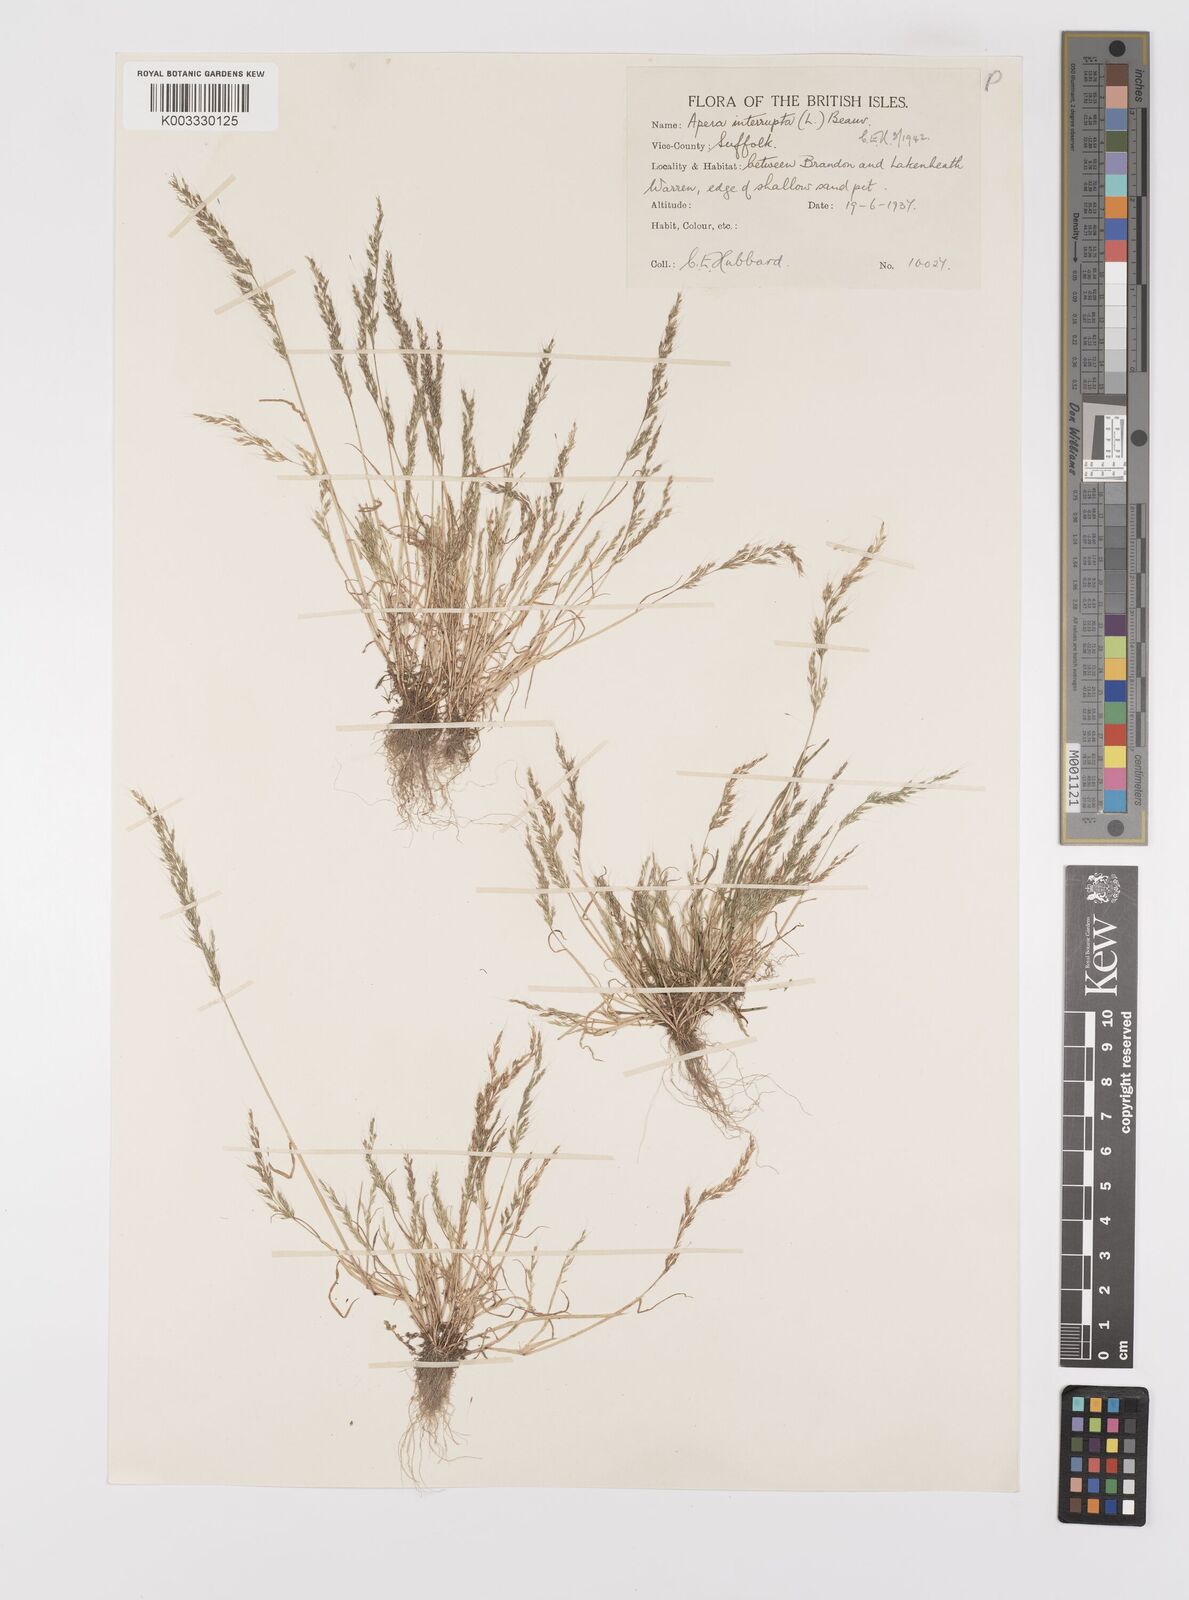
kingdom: Plantae
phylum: Tracheophyta
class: Liliopsida
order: Poales
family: Poaceae
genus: Apera
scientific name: Apera interrupta
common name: Dense silky-bent
